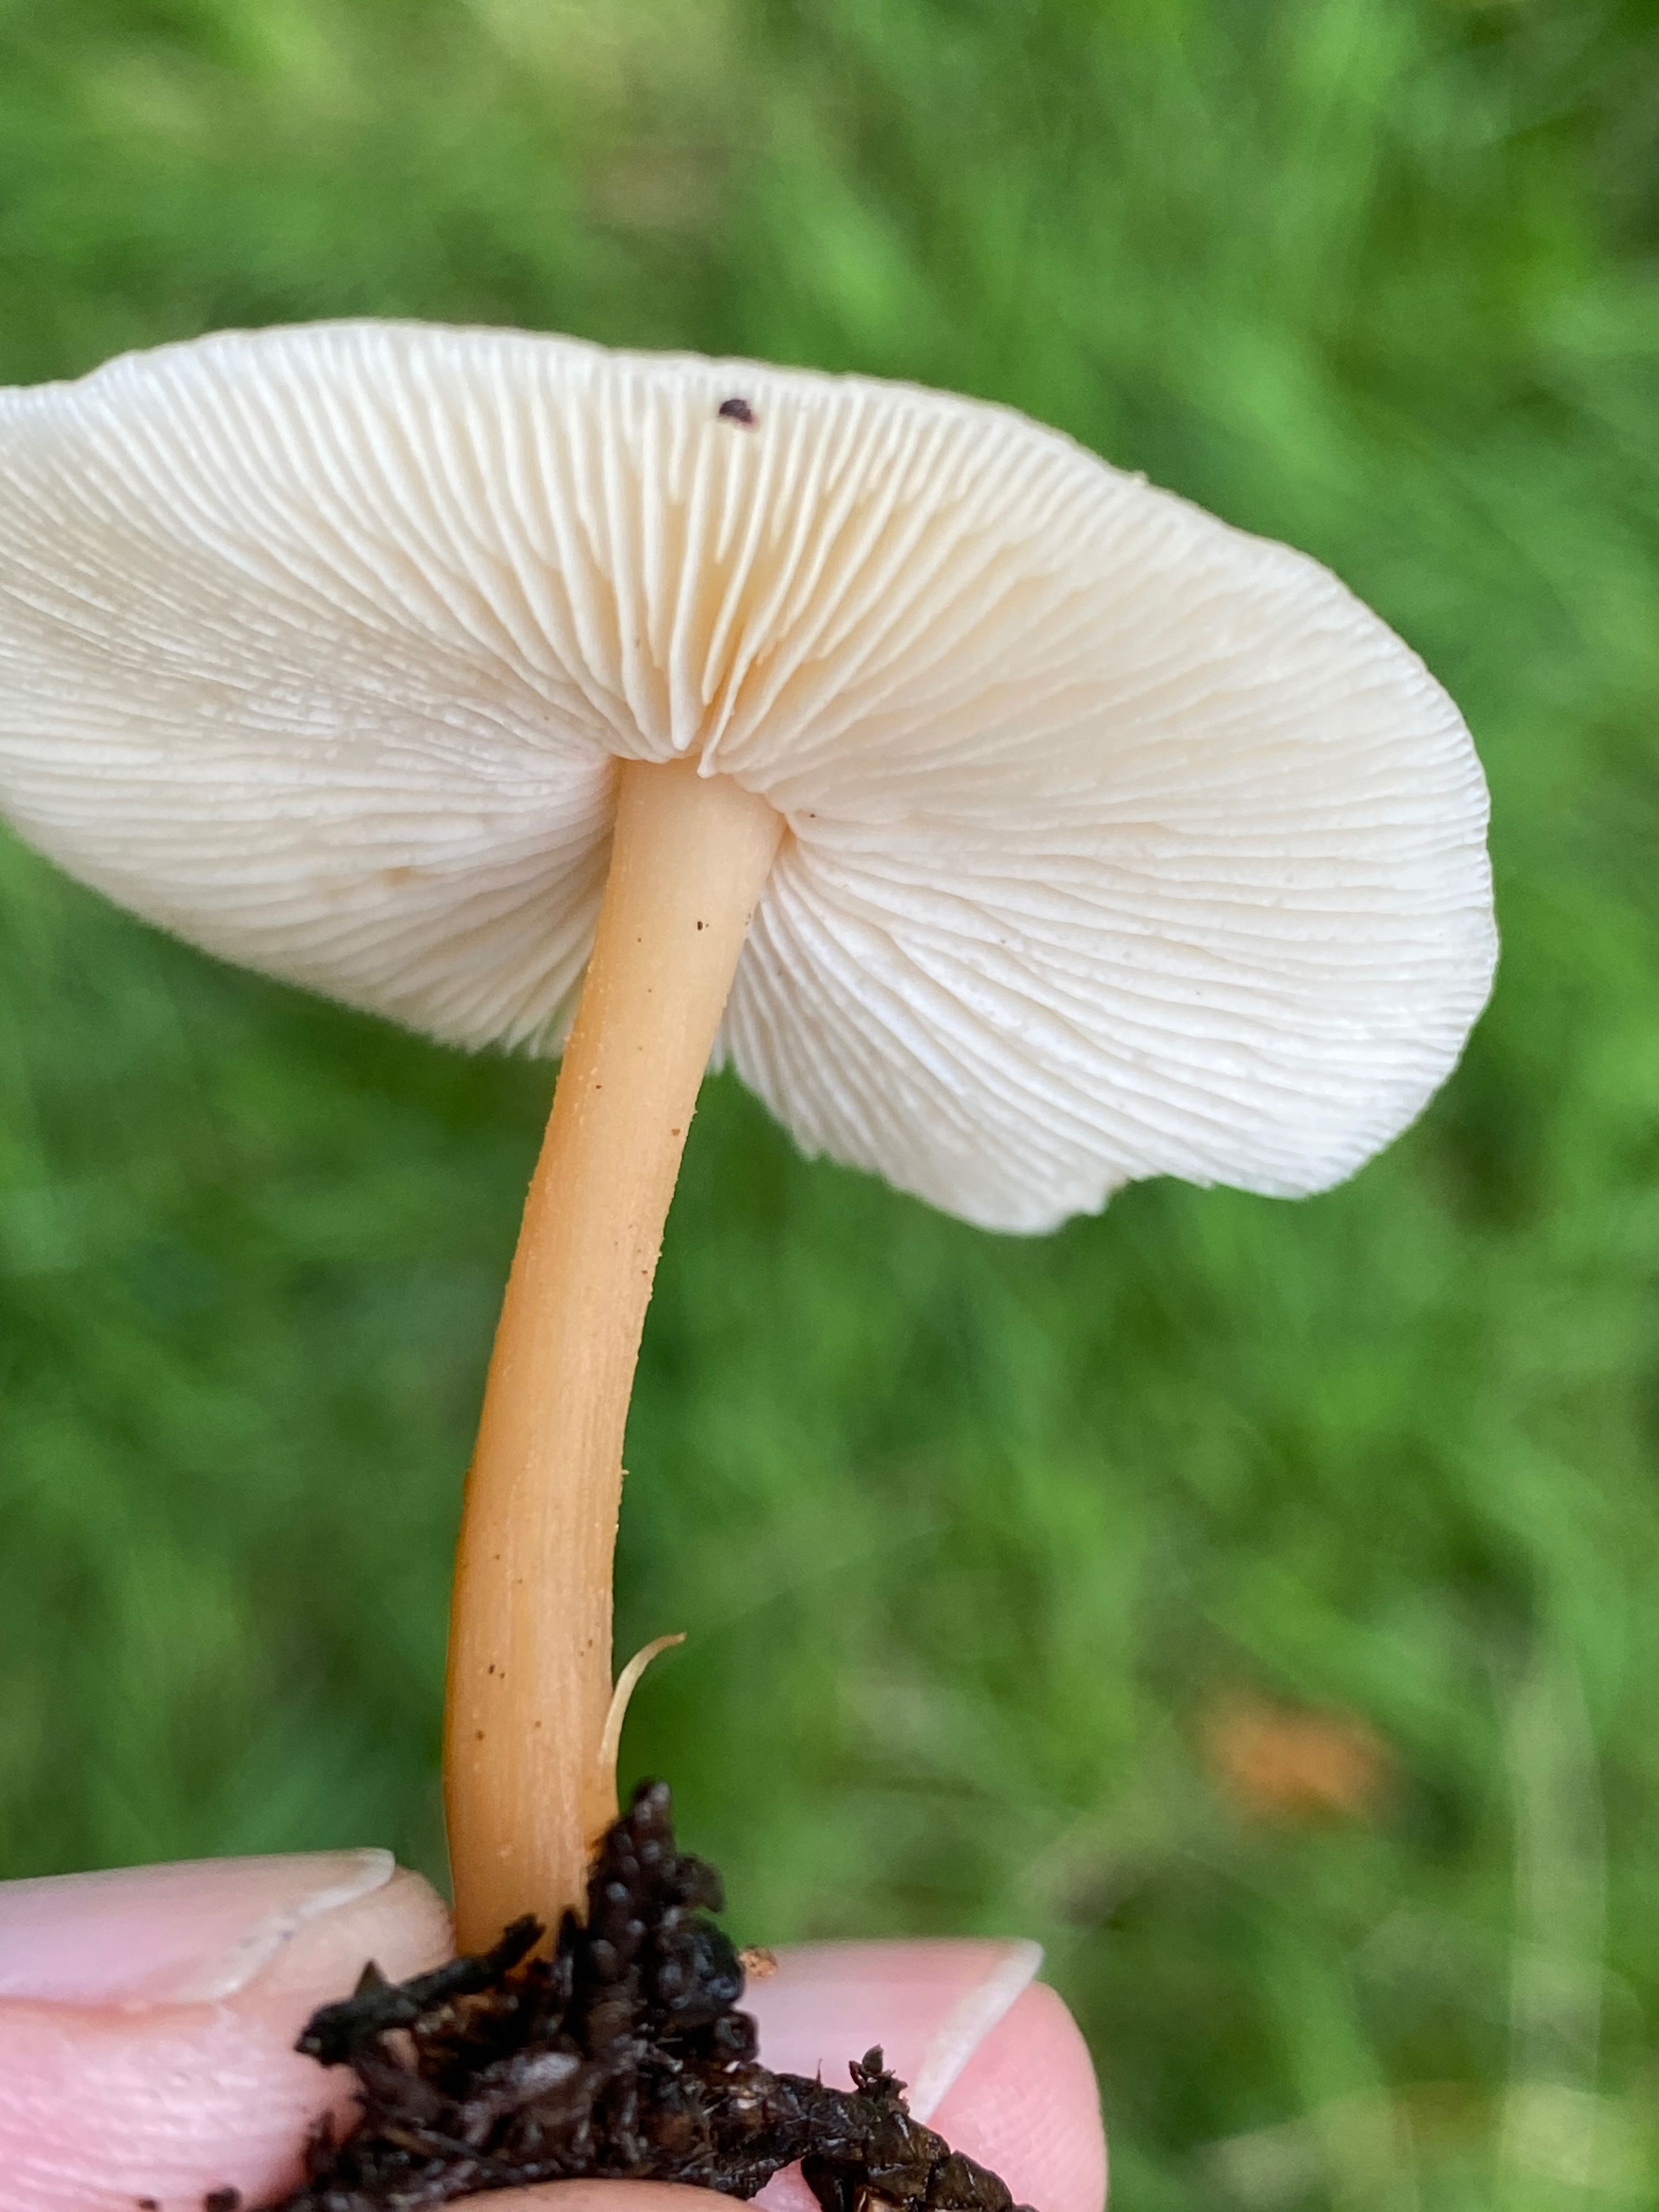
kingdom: Fungi
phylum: Basidiomycota
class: Agaricomycetes
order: Agaricales
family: Omphalotaceae
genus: Gymnopus
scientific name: Gymnopus dryophilus
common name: løv-fladhat
